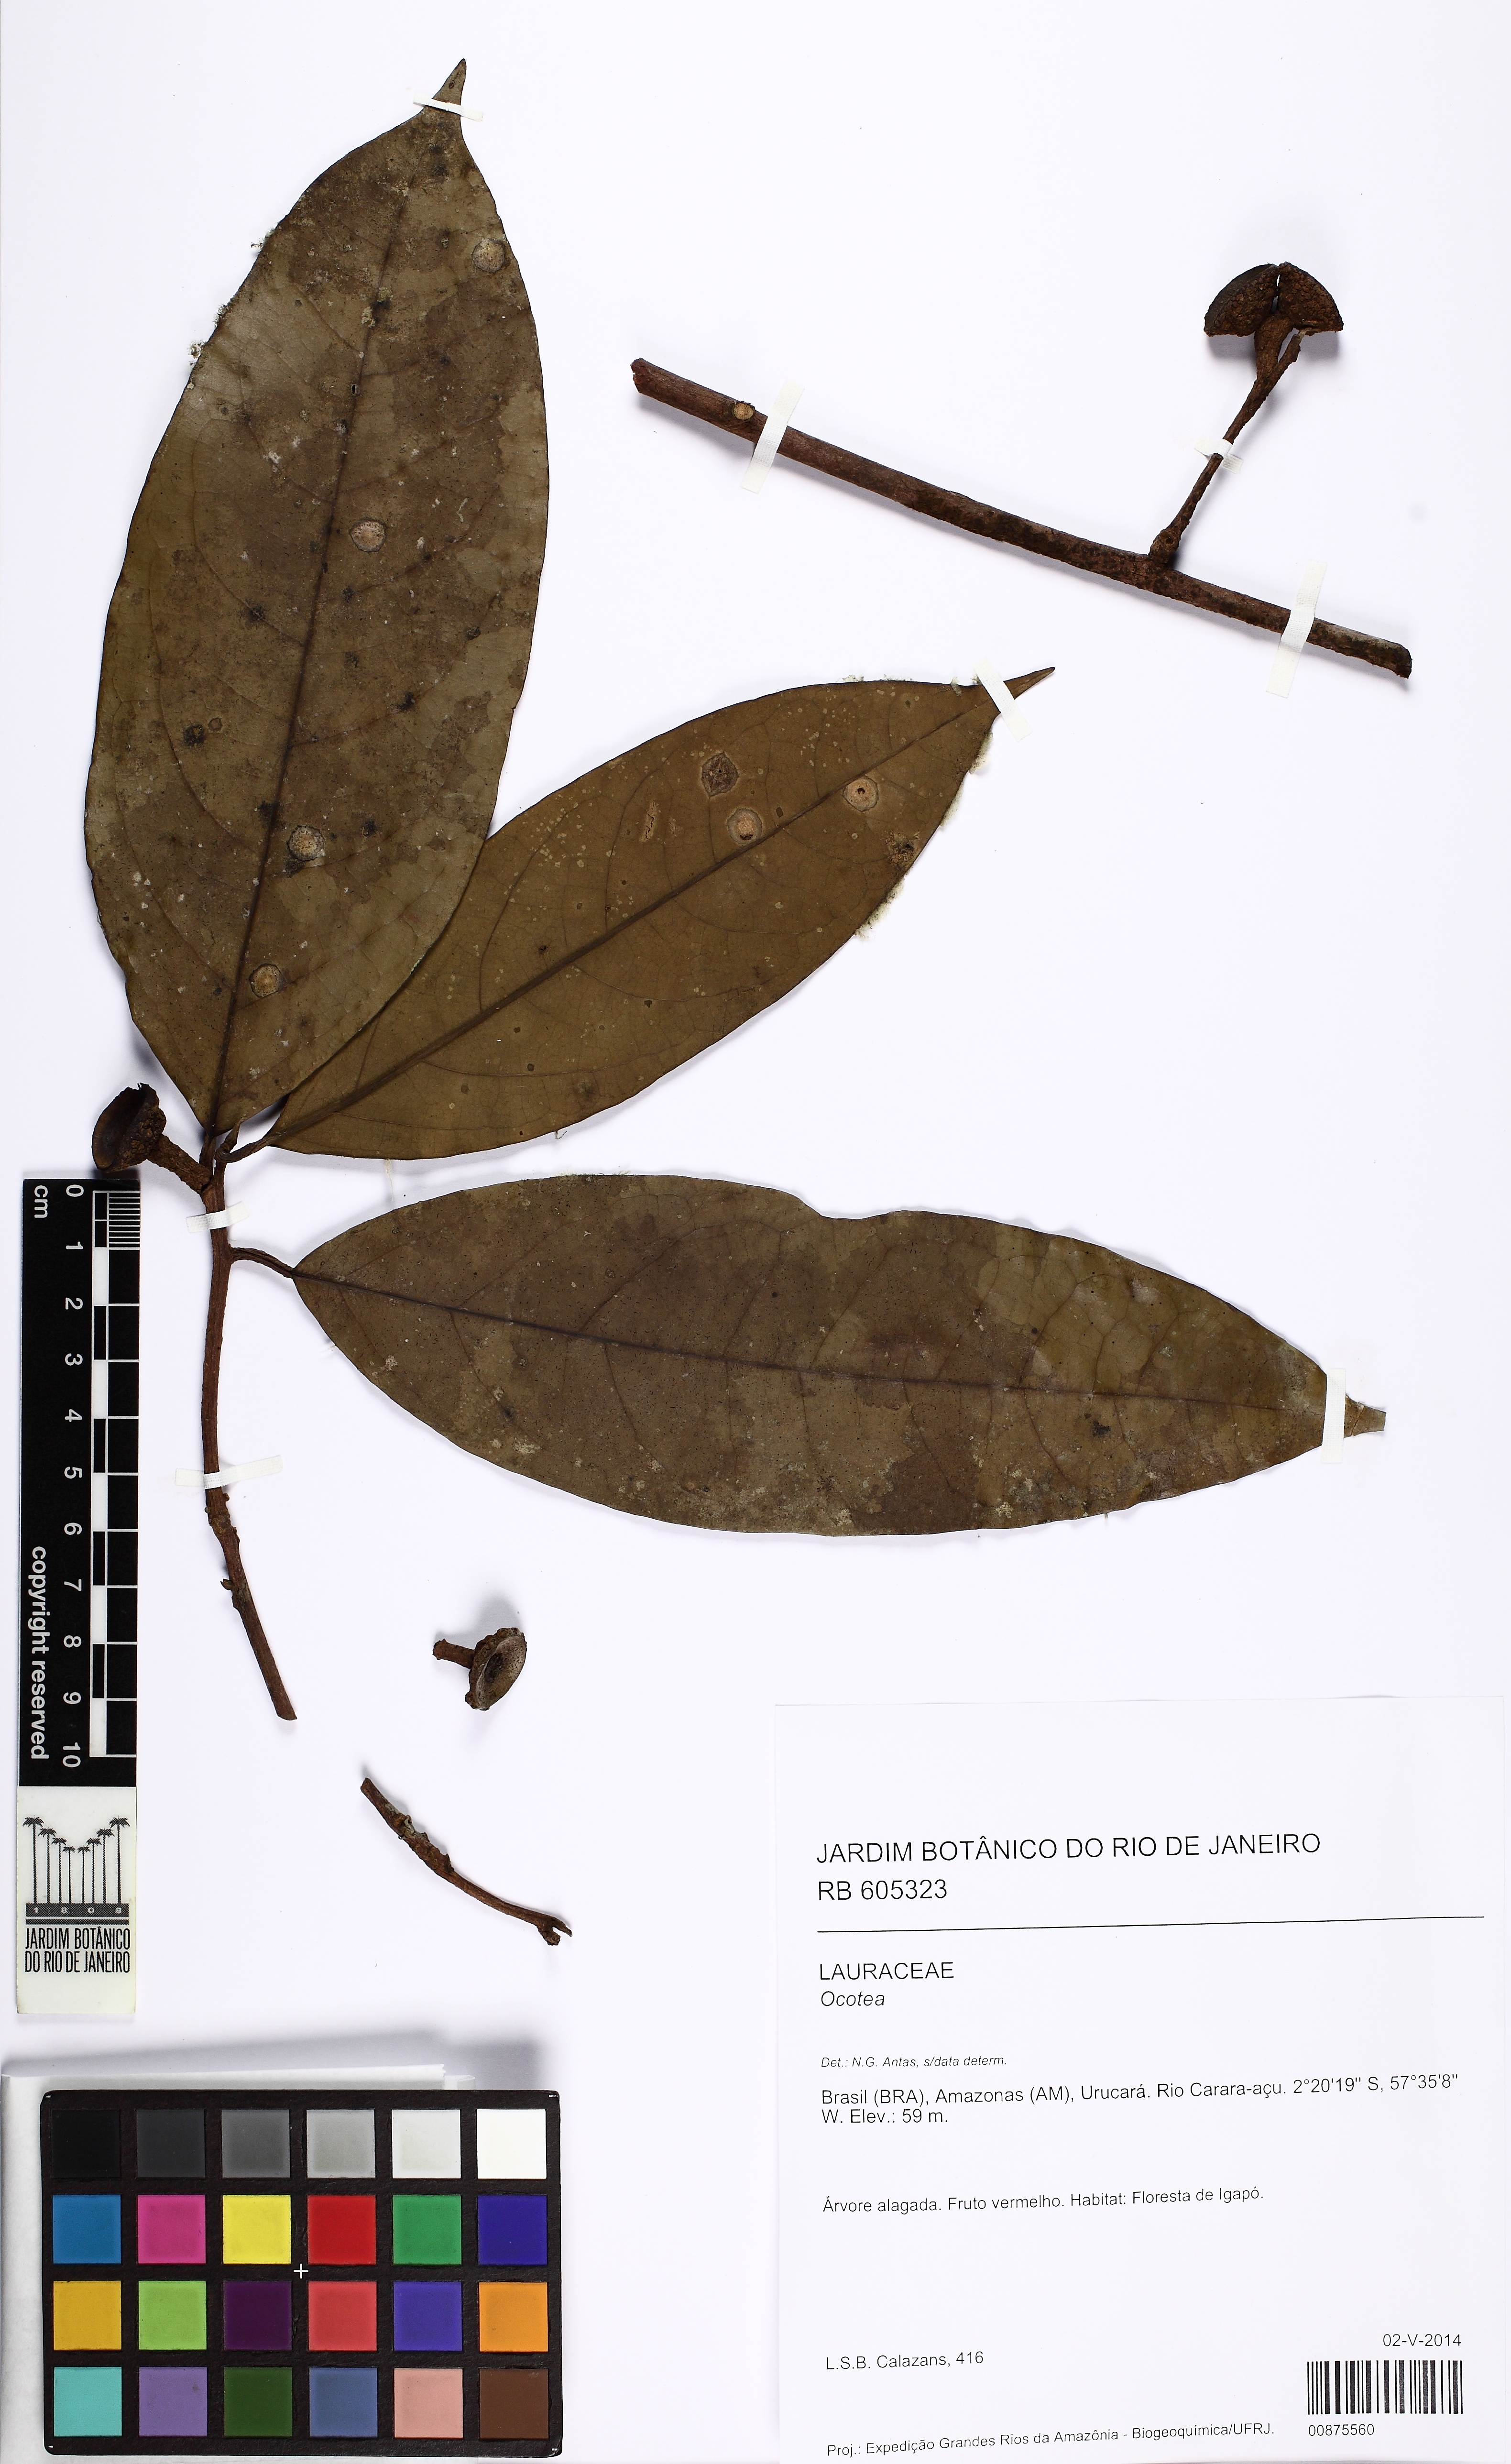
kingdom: Plantae
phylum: Tracheophyta
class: Magnoliopsida
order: Laurales
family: Lauraceae
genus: Ocotea
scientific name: Ocotea
